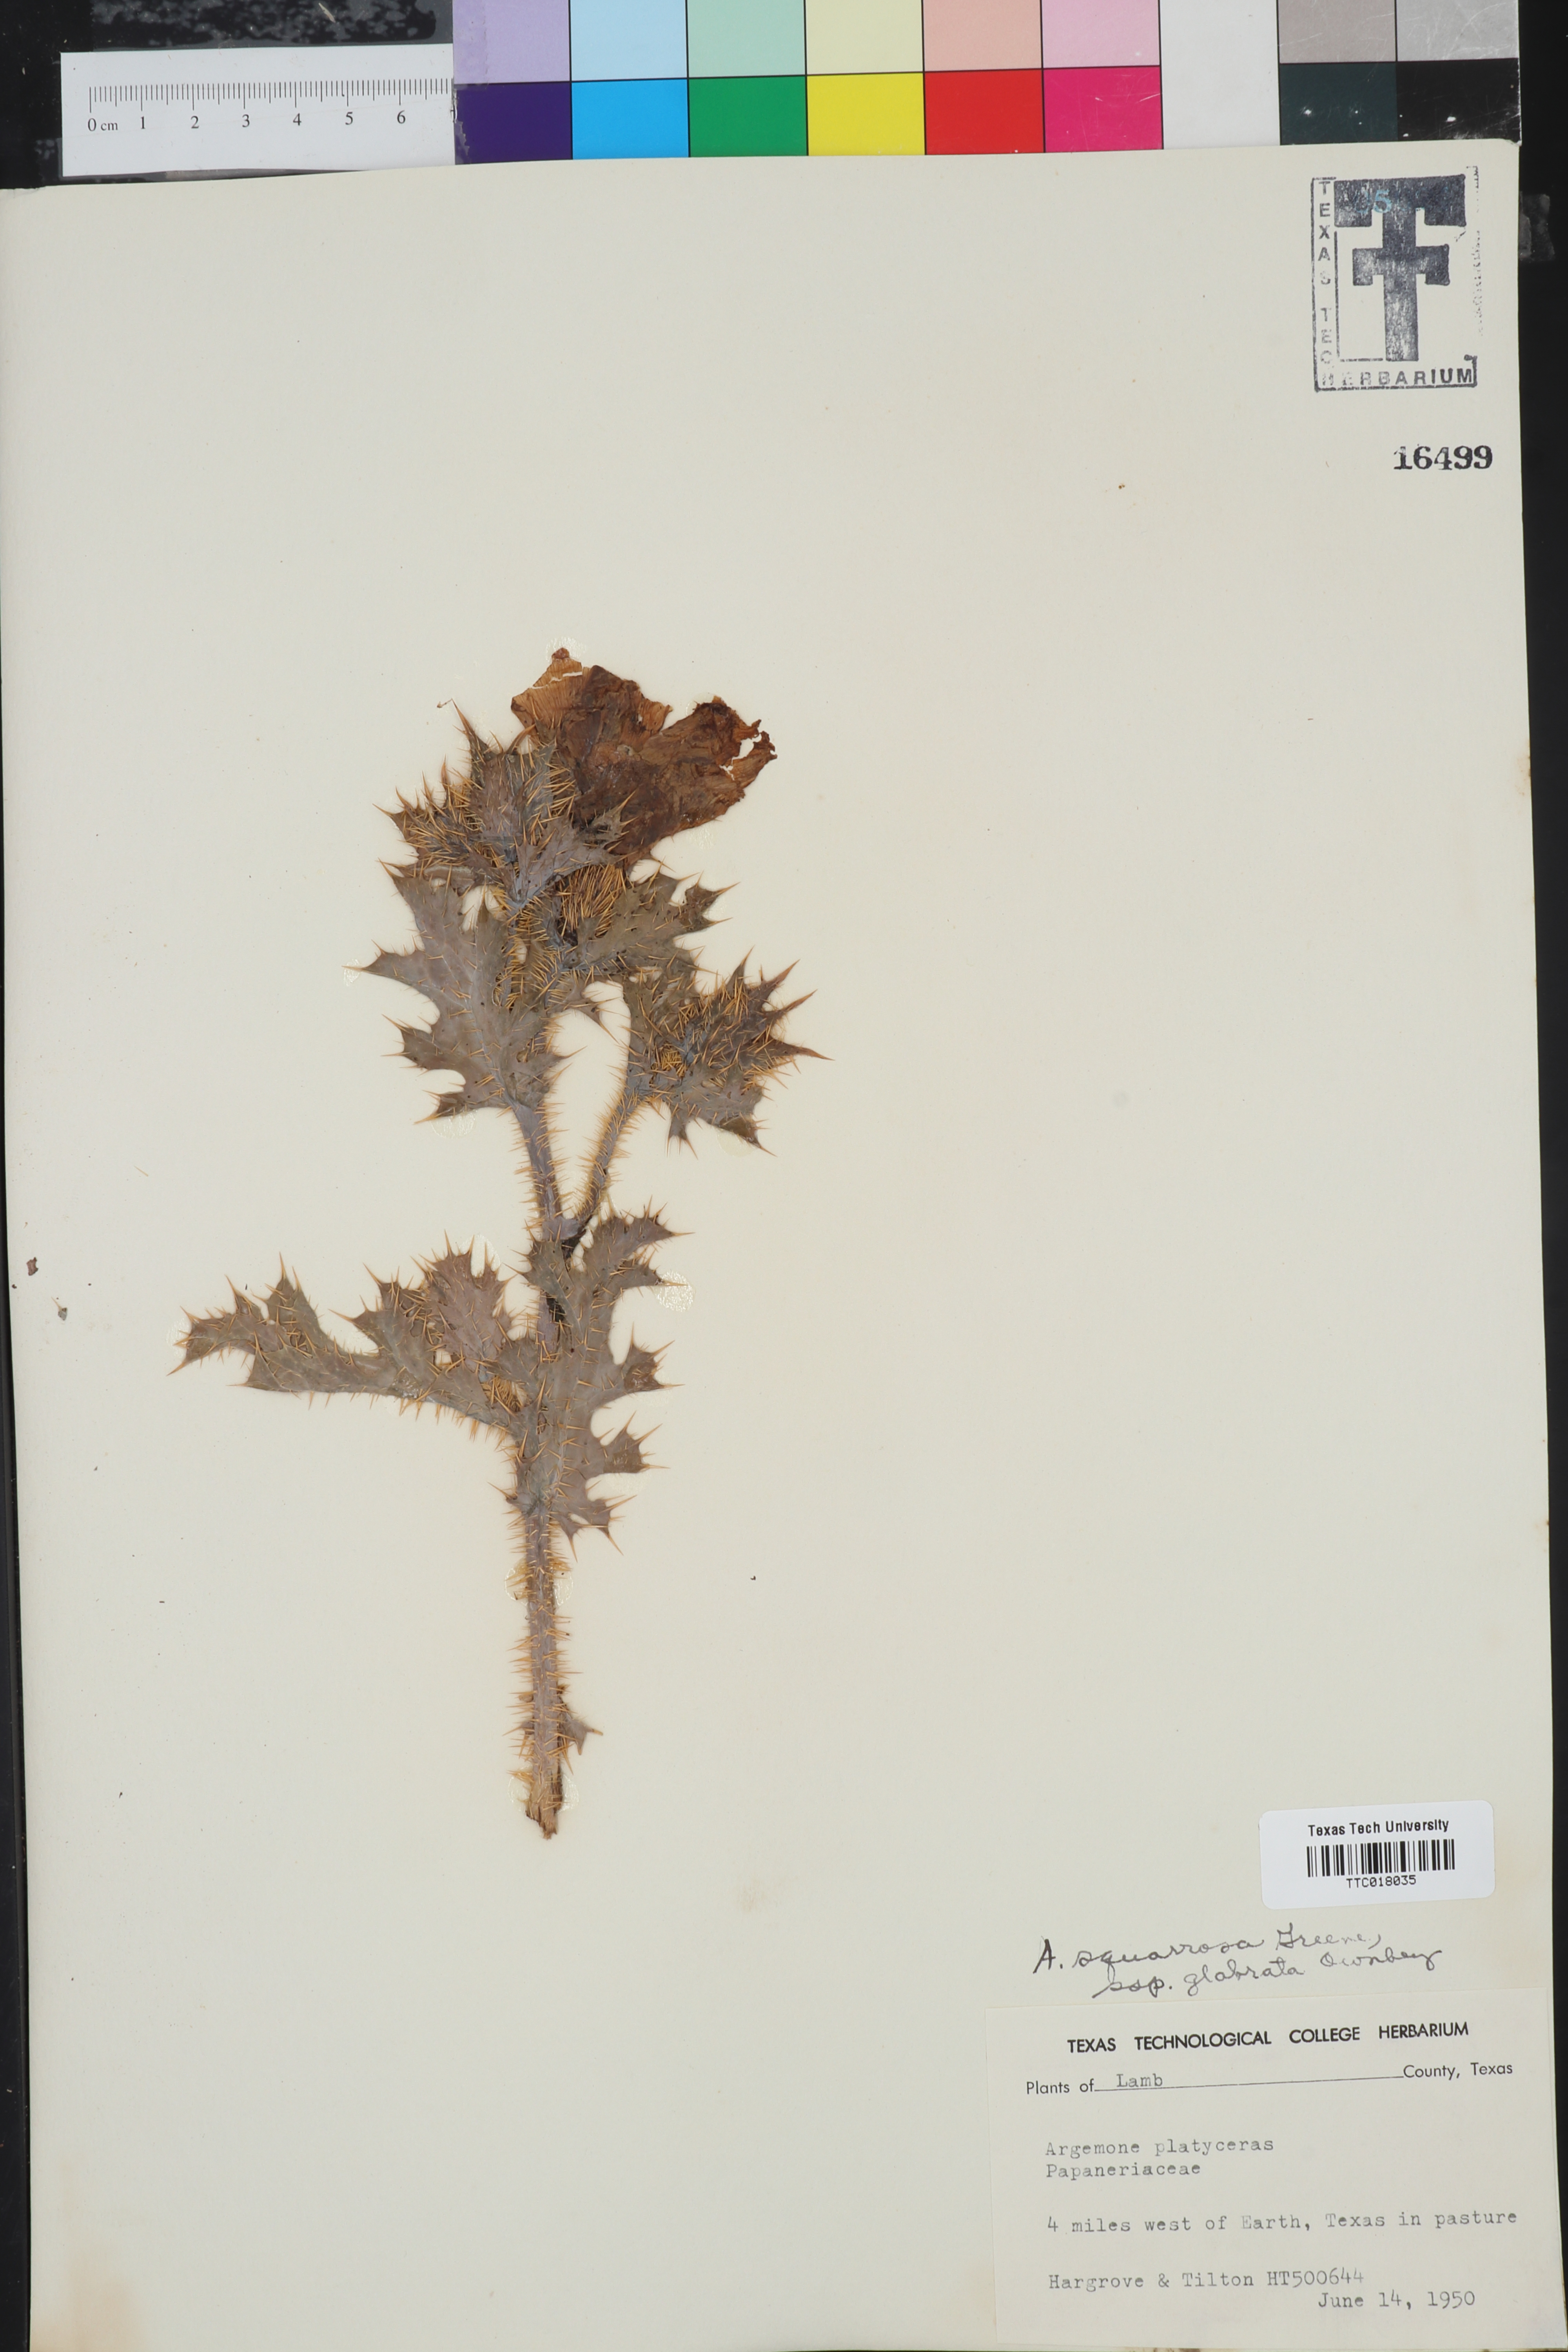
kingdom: Plantae
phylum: Tracheophyta
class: Magnoliopsida
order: Ranunculales
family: Papaveraceae
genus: Argemone
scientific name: Argemone squarrosa
